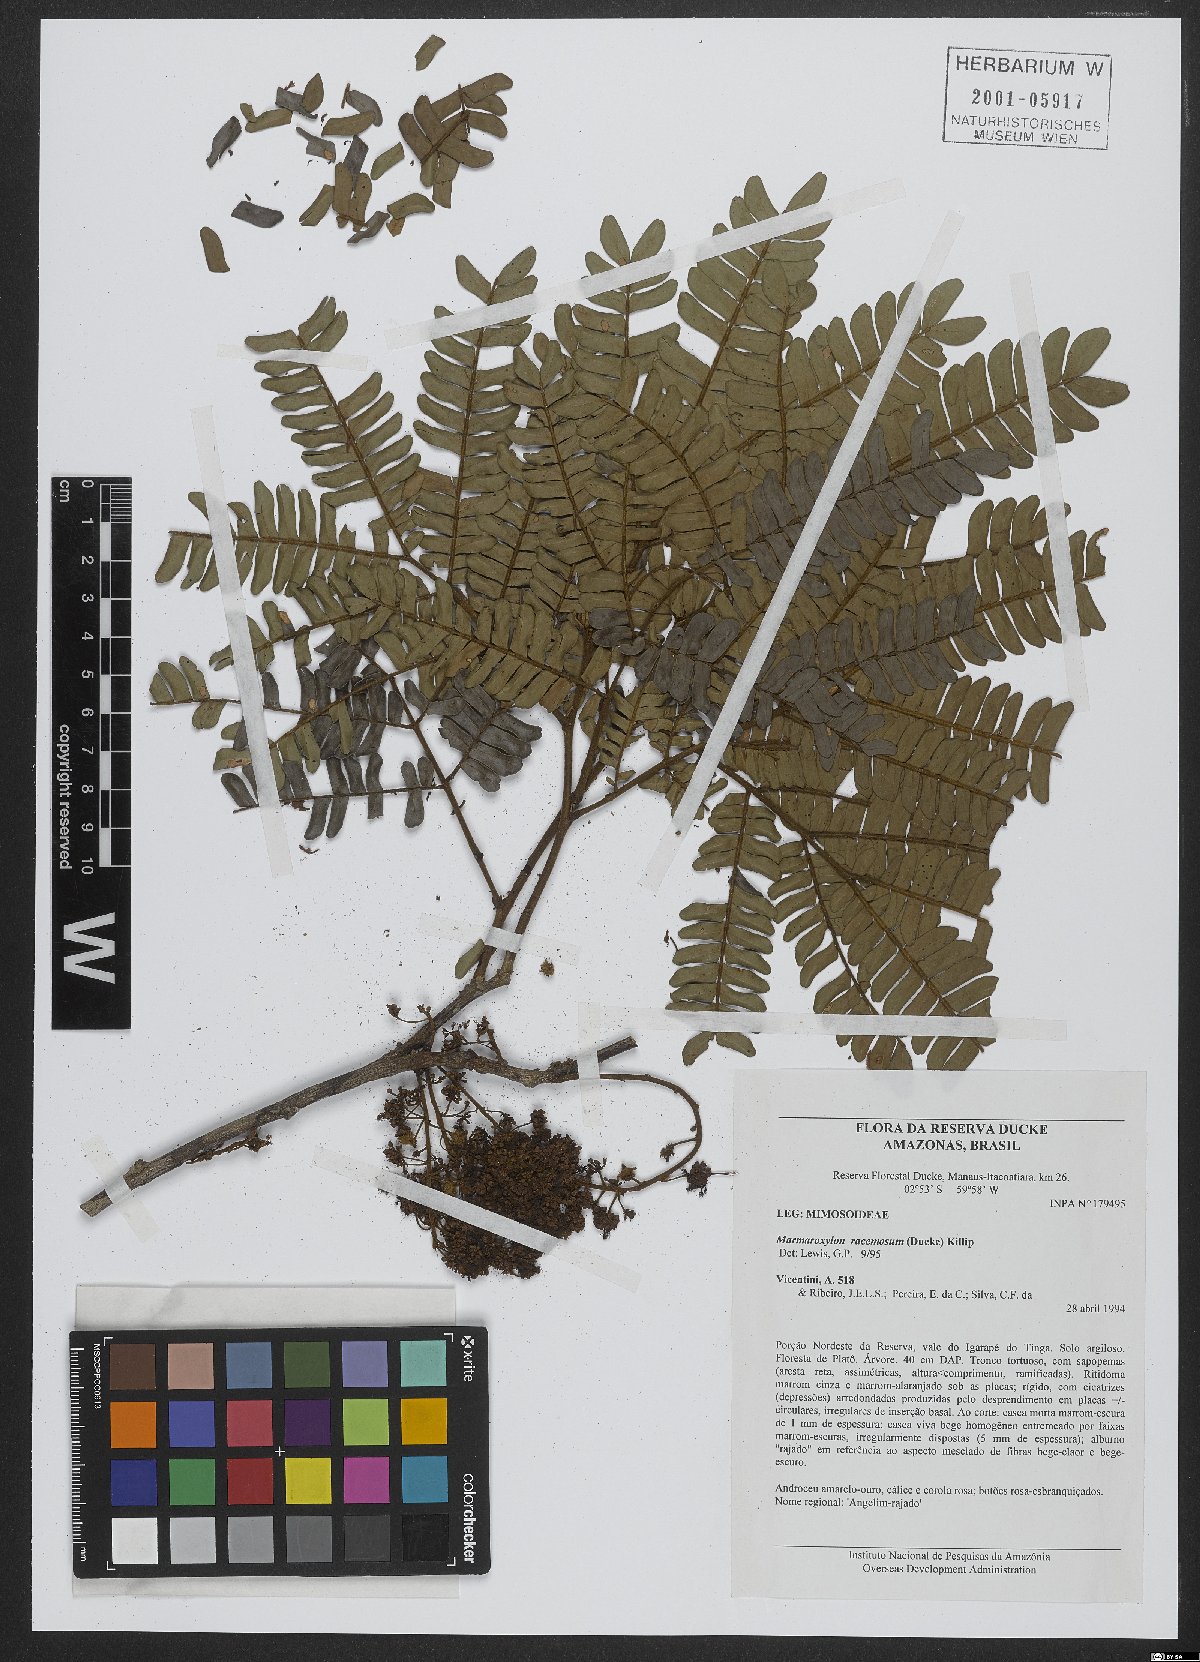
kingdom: Plantae
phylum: Tracheophyta
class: Magnoliopsida
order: Fabales
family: Fabaceae
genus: Zygia
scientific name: Zygia racemosa
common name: Marblewood
